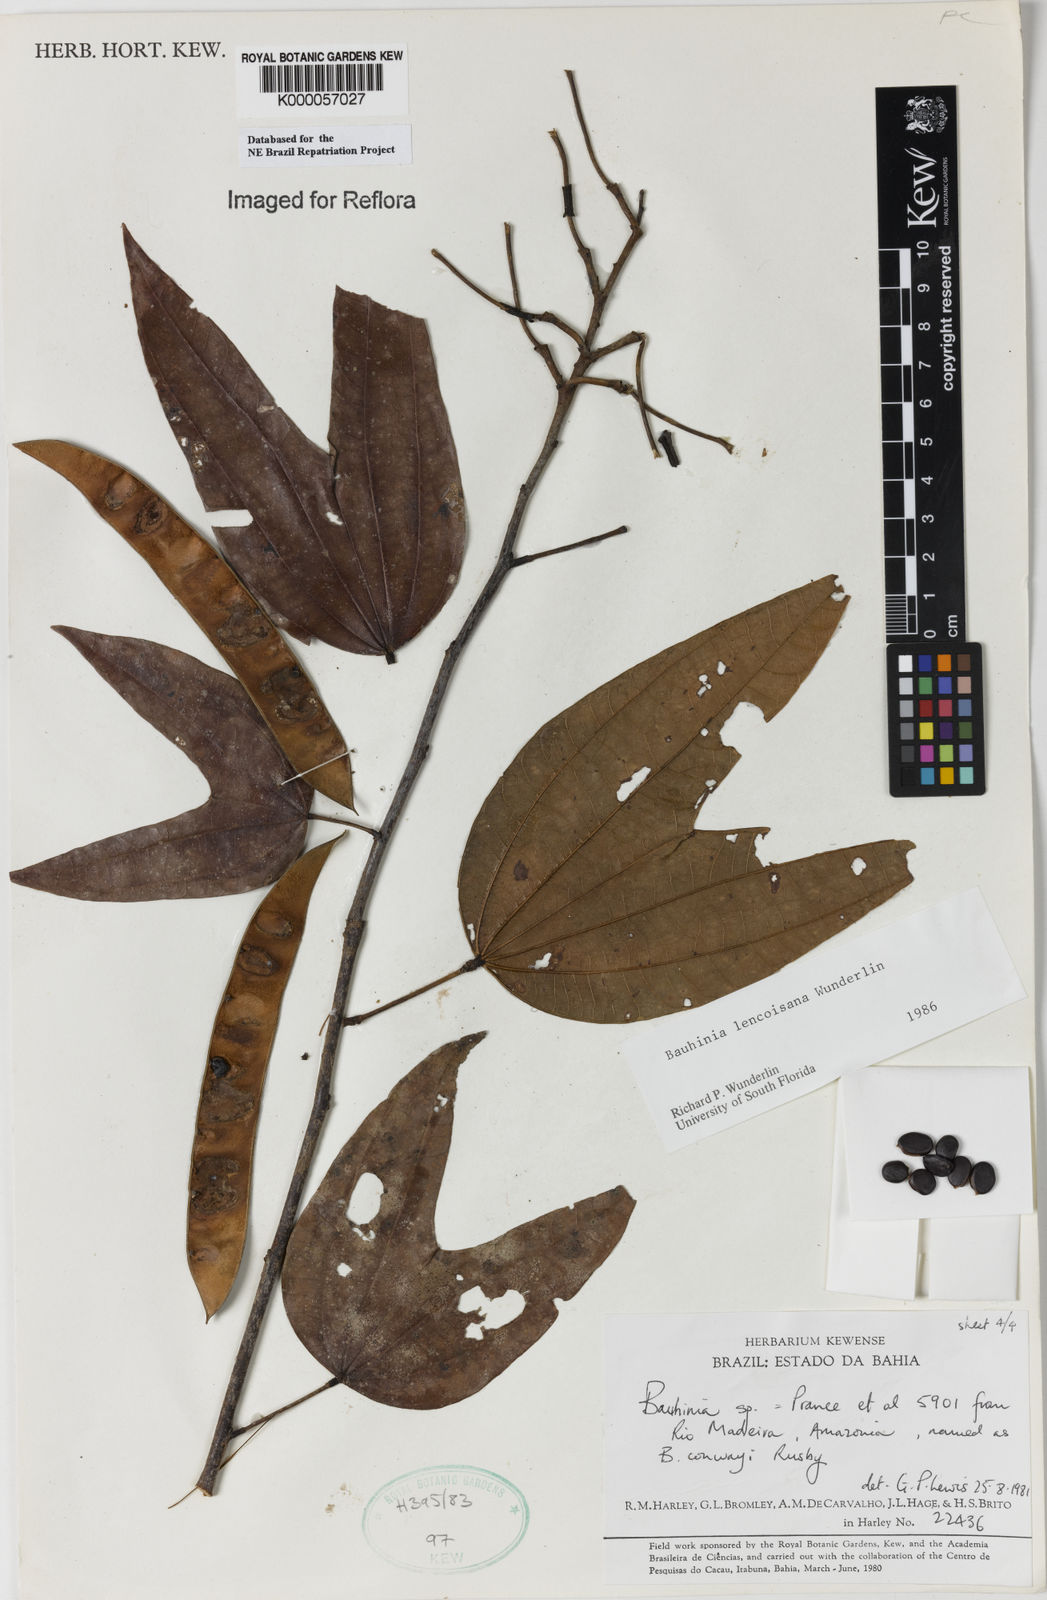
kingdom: Plantae
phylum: Tracheophyta
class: Magnoliopsida
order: Fabales
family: Fabaceae
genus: Bauhinia
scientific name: Bauhinia
